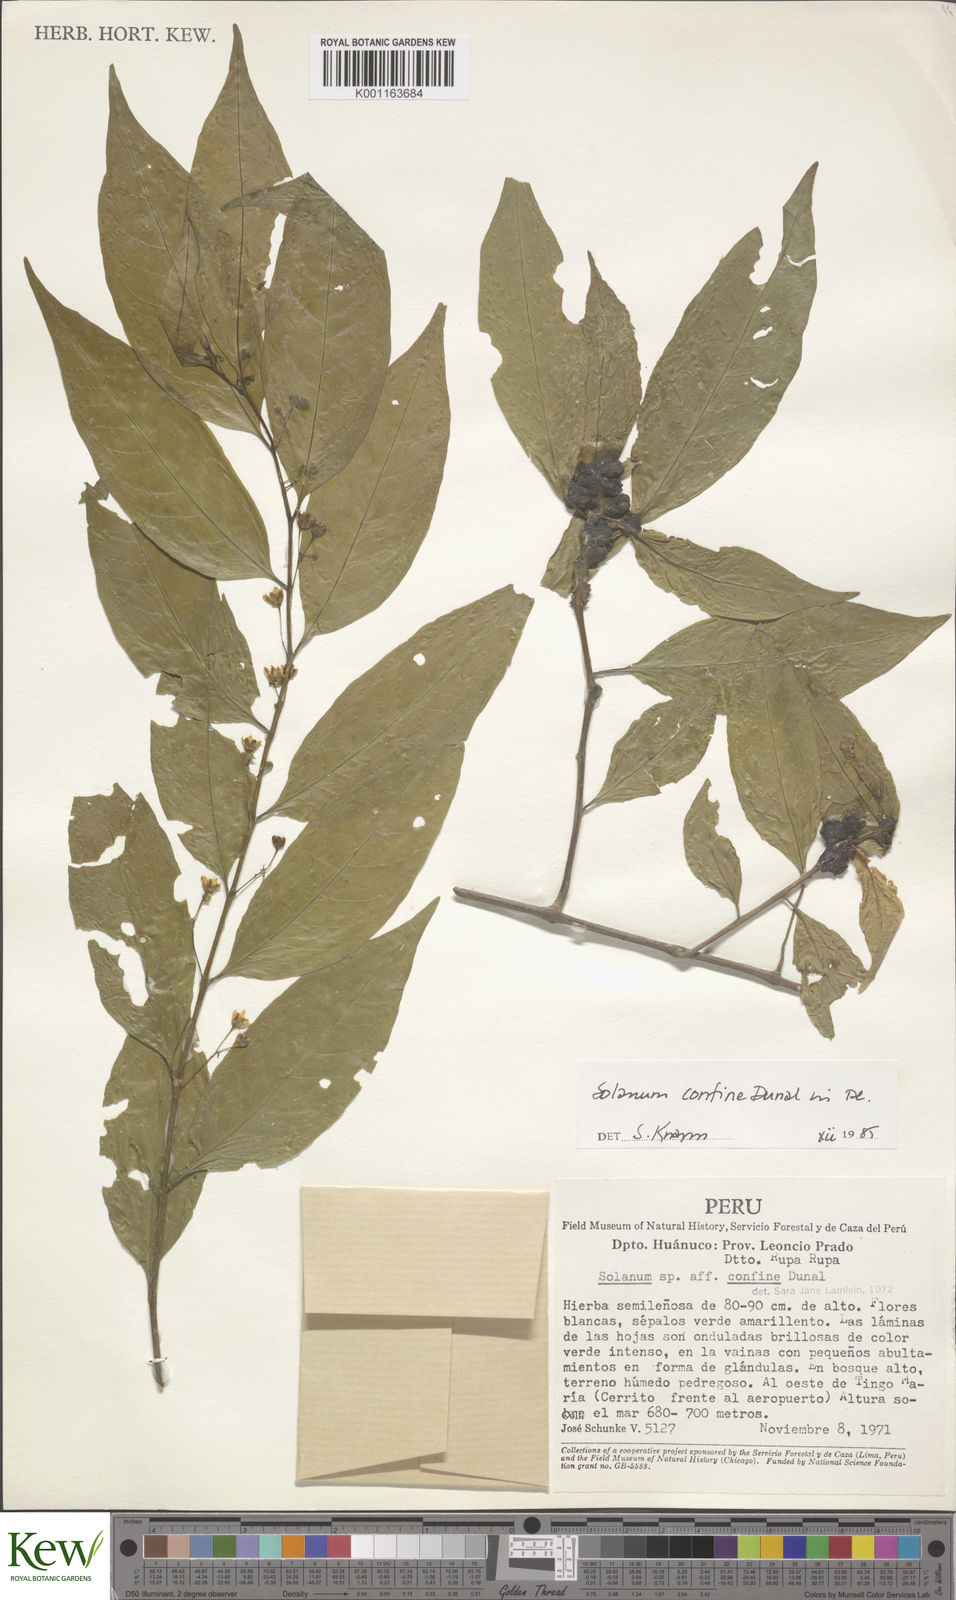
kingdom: Plantae
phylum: Tracheophyta
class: Magnoliopsida
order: Solanales
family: Solanaceae
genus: Solanum
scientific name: Solanum confine
